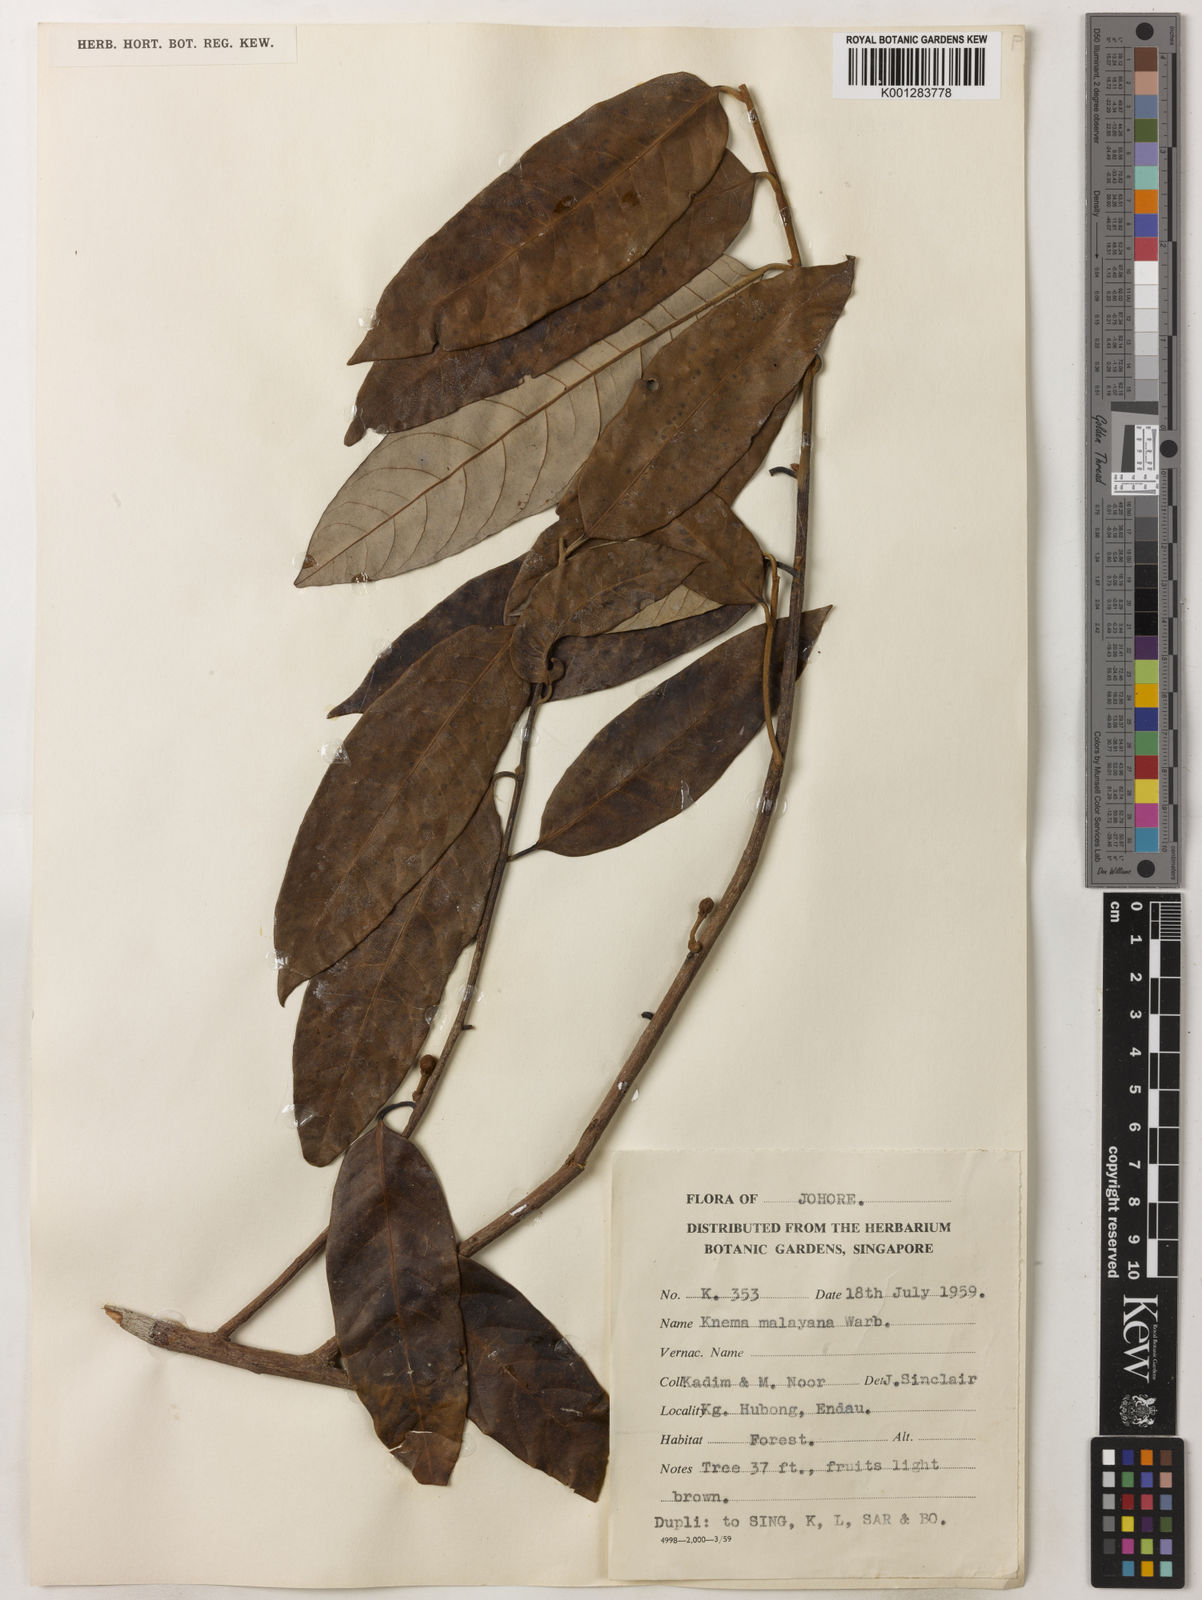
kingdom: Plantae
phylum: Tracheophyta
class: Magnoliopsida
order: Magnoliales
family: Myristicaceae
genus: Knema
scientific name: Knema malayana
